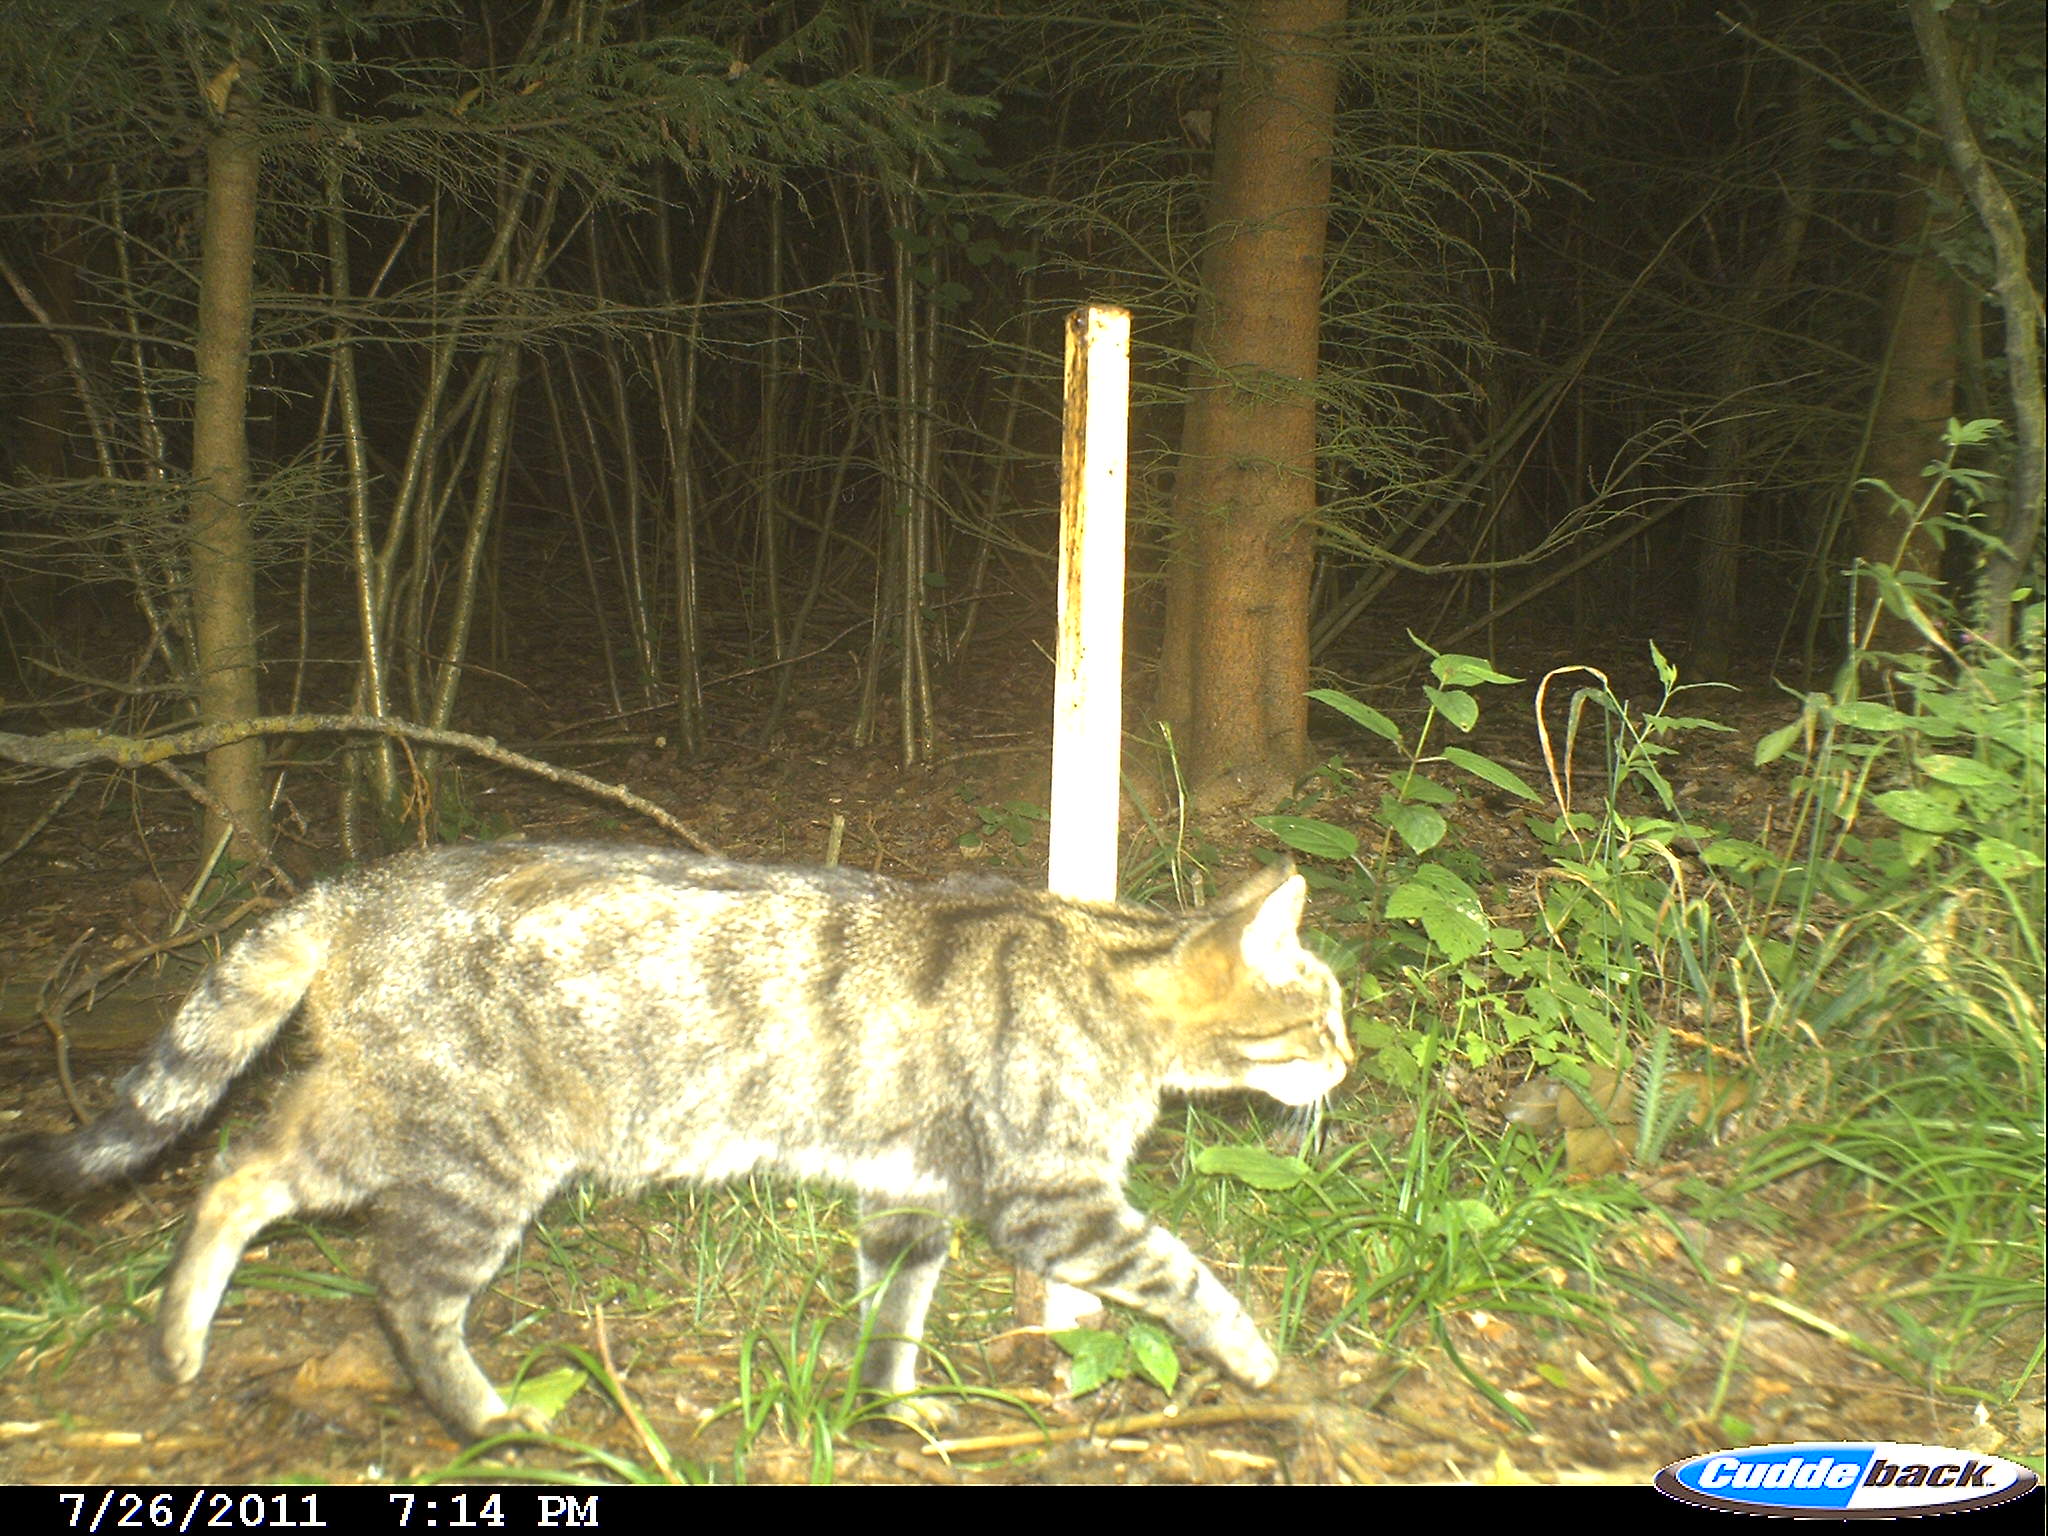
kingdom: Animalia
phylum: Chordata
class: Mammalia
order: Carnivora
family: Felidae
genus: Felis
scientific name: Felis silvestris
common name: Wildcat
